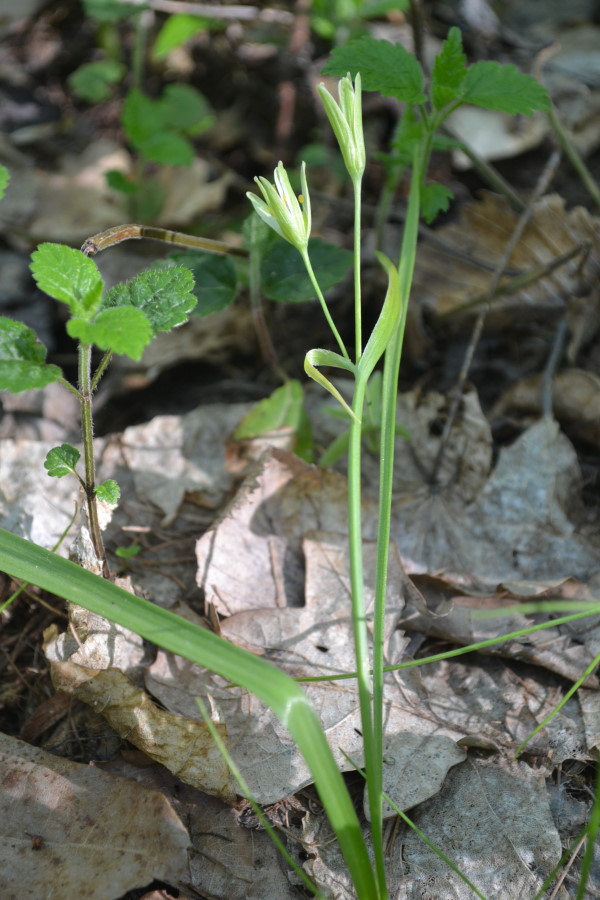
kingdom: Plantae
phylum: Tracheophyta
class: Liliopsida
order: Liliales
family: Liliaceae
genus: Gagea
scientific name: Gagea lutea
